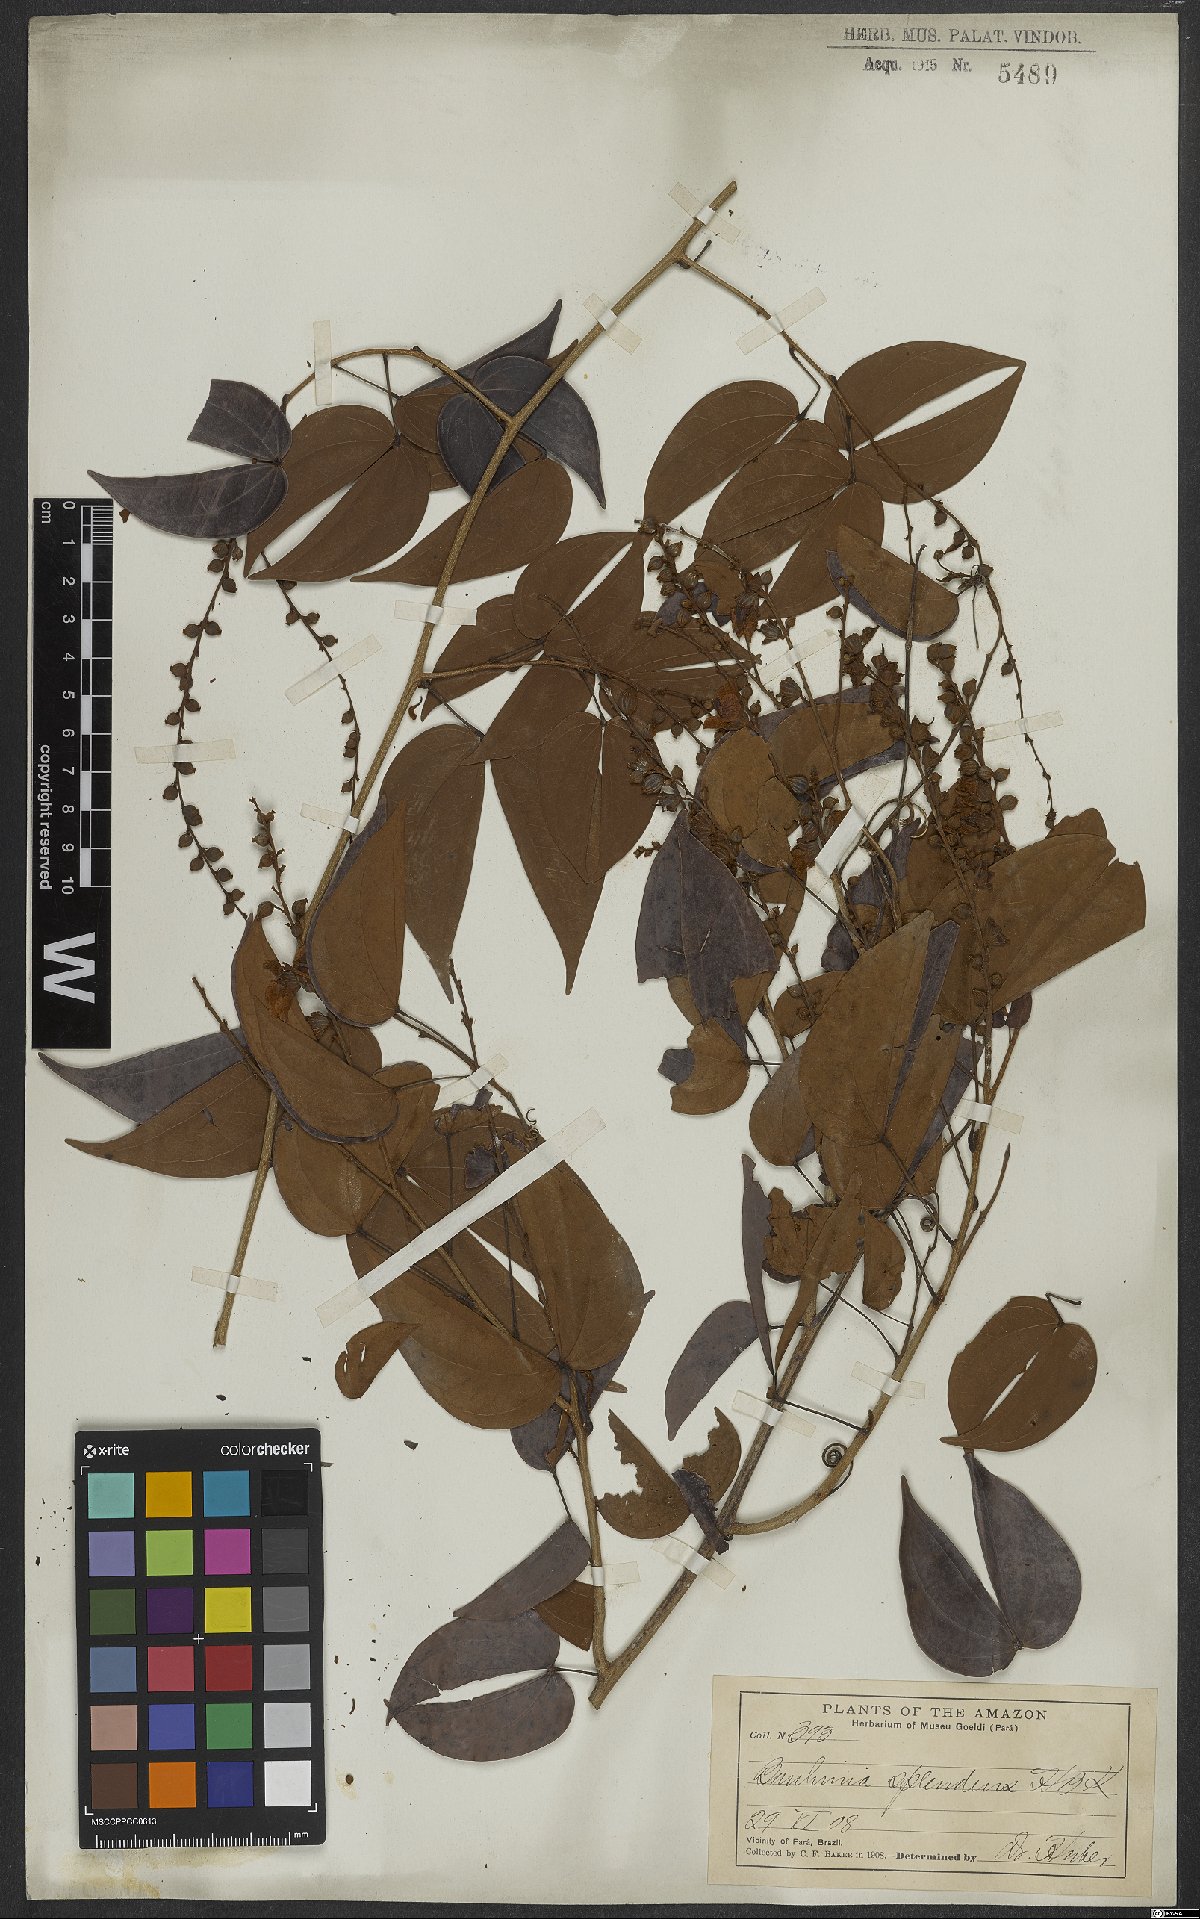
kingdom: Plantae
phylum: Tracheophyta
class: Magnoliopsida
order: Fabales
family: Fabaceae
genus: Schnella
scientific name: Schnella splendens
